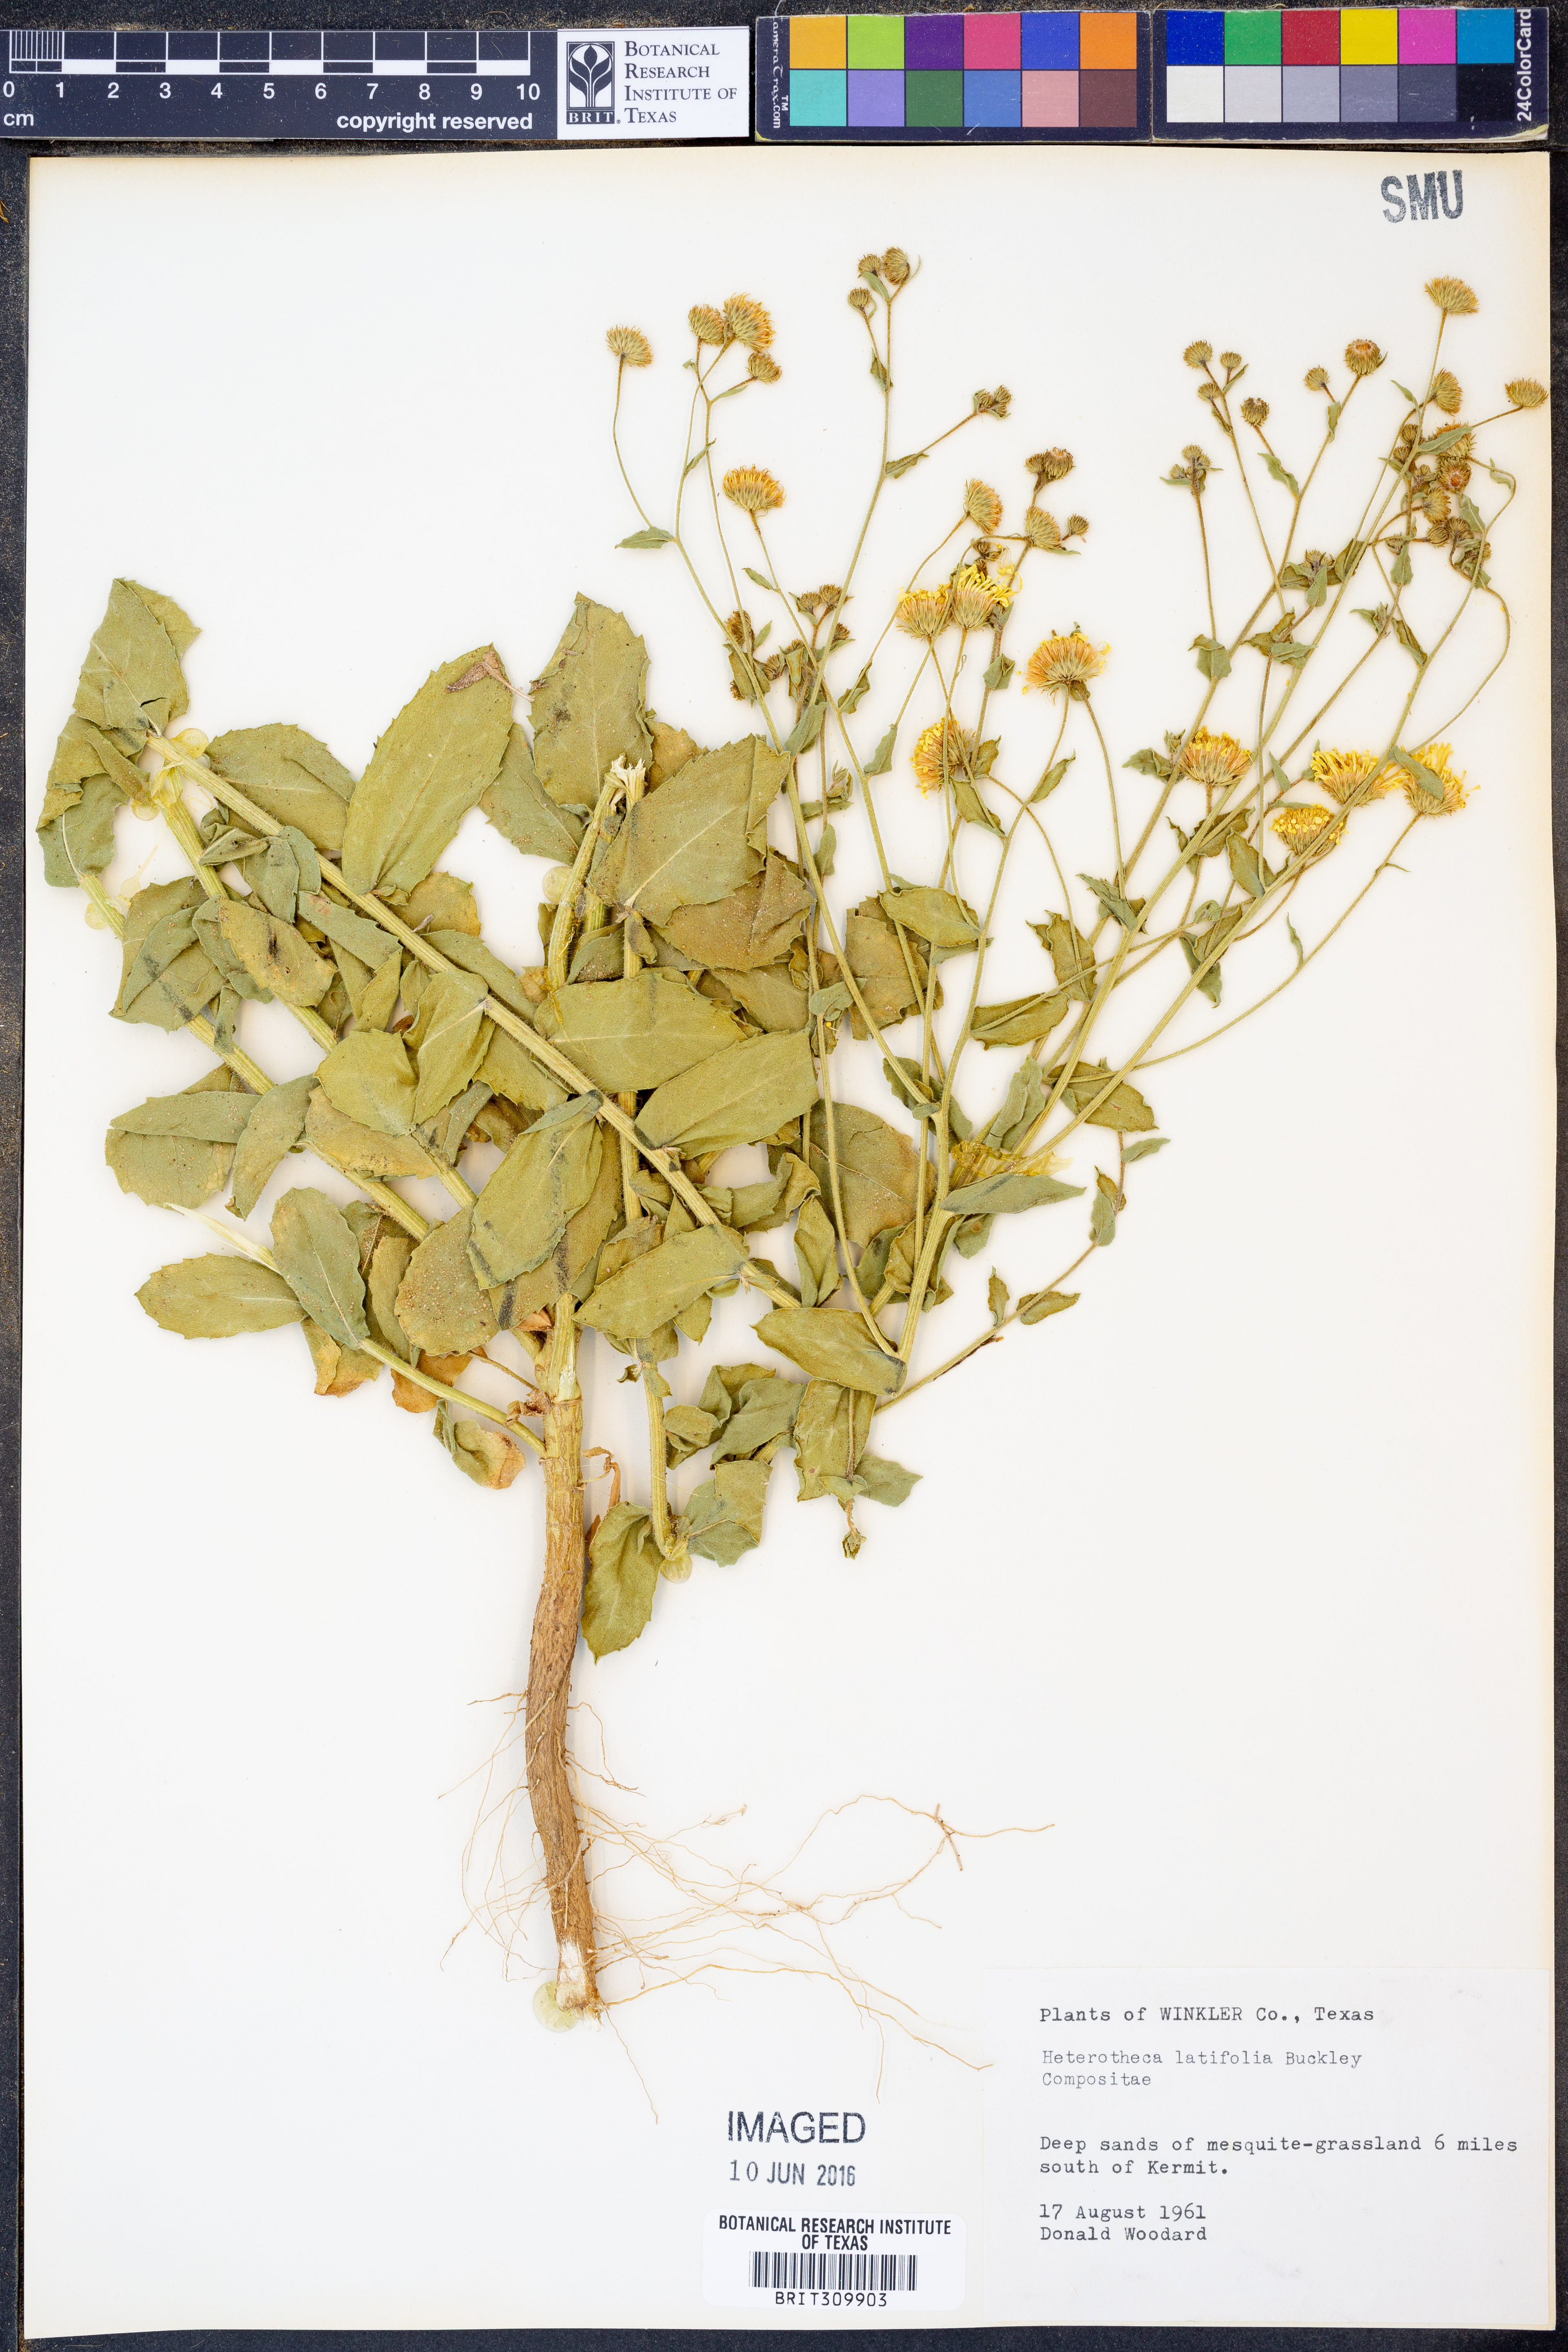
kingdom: Plantae
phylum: Tracheophyta
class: Magnoliopsida
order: Asterales
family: Asteraceae
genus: Heterotheca
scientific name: Heterotheca subaxillaris
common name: Camphorweed
